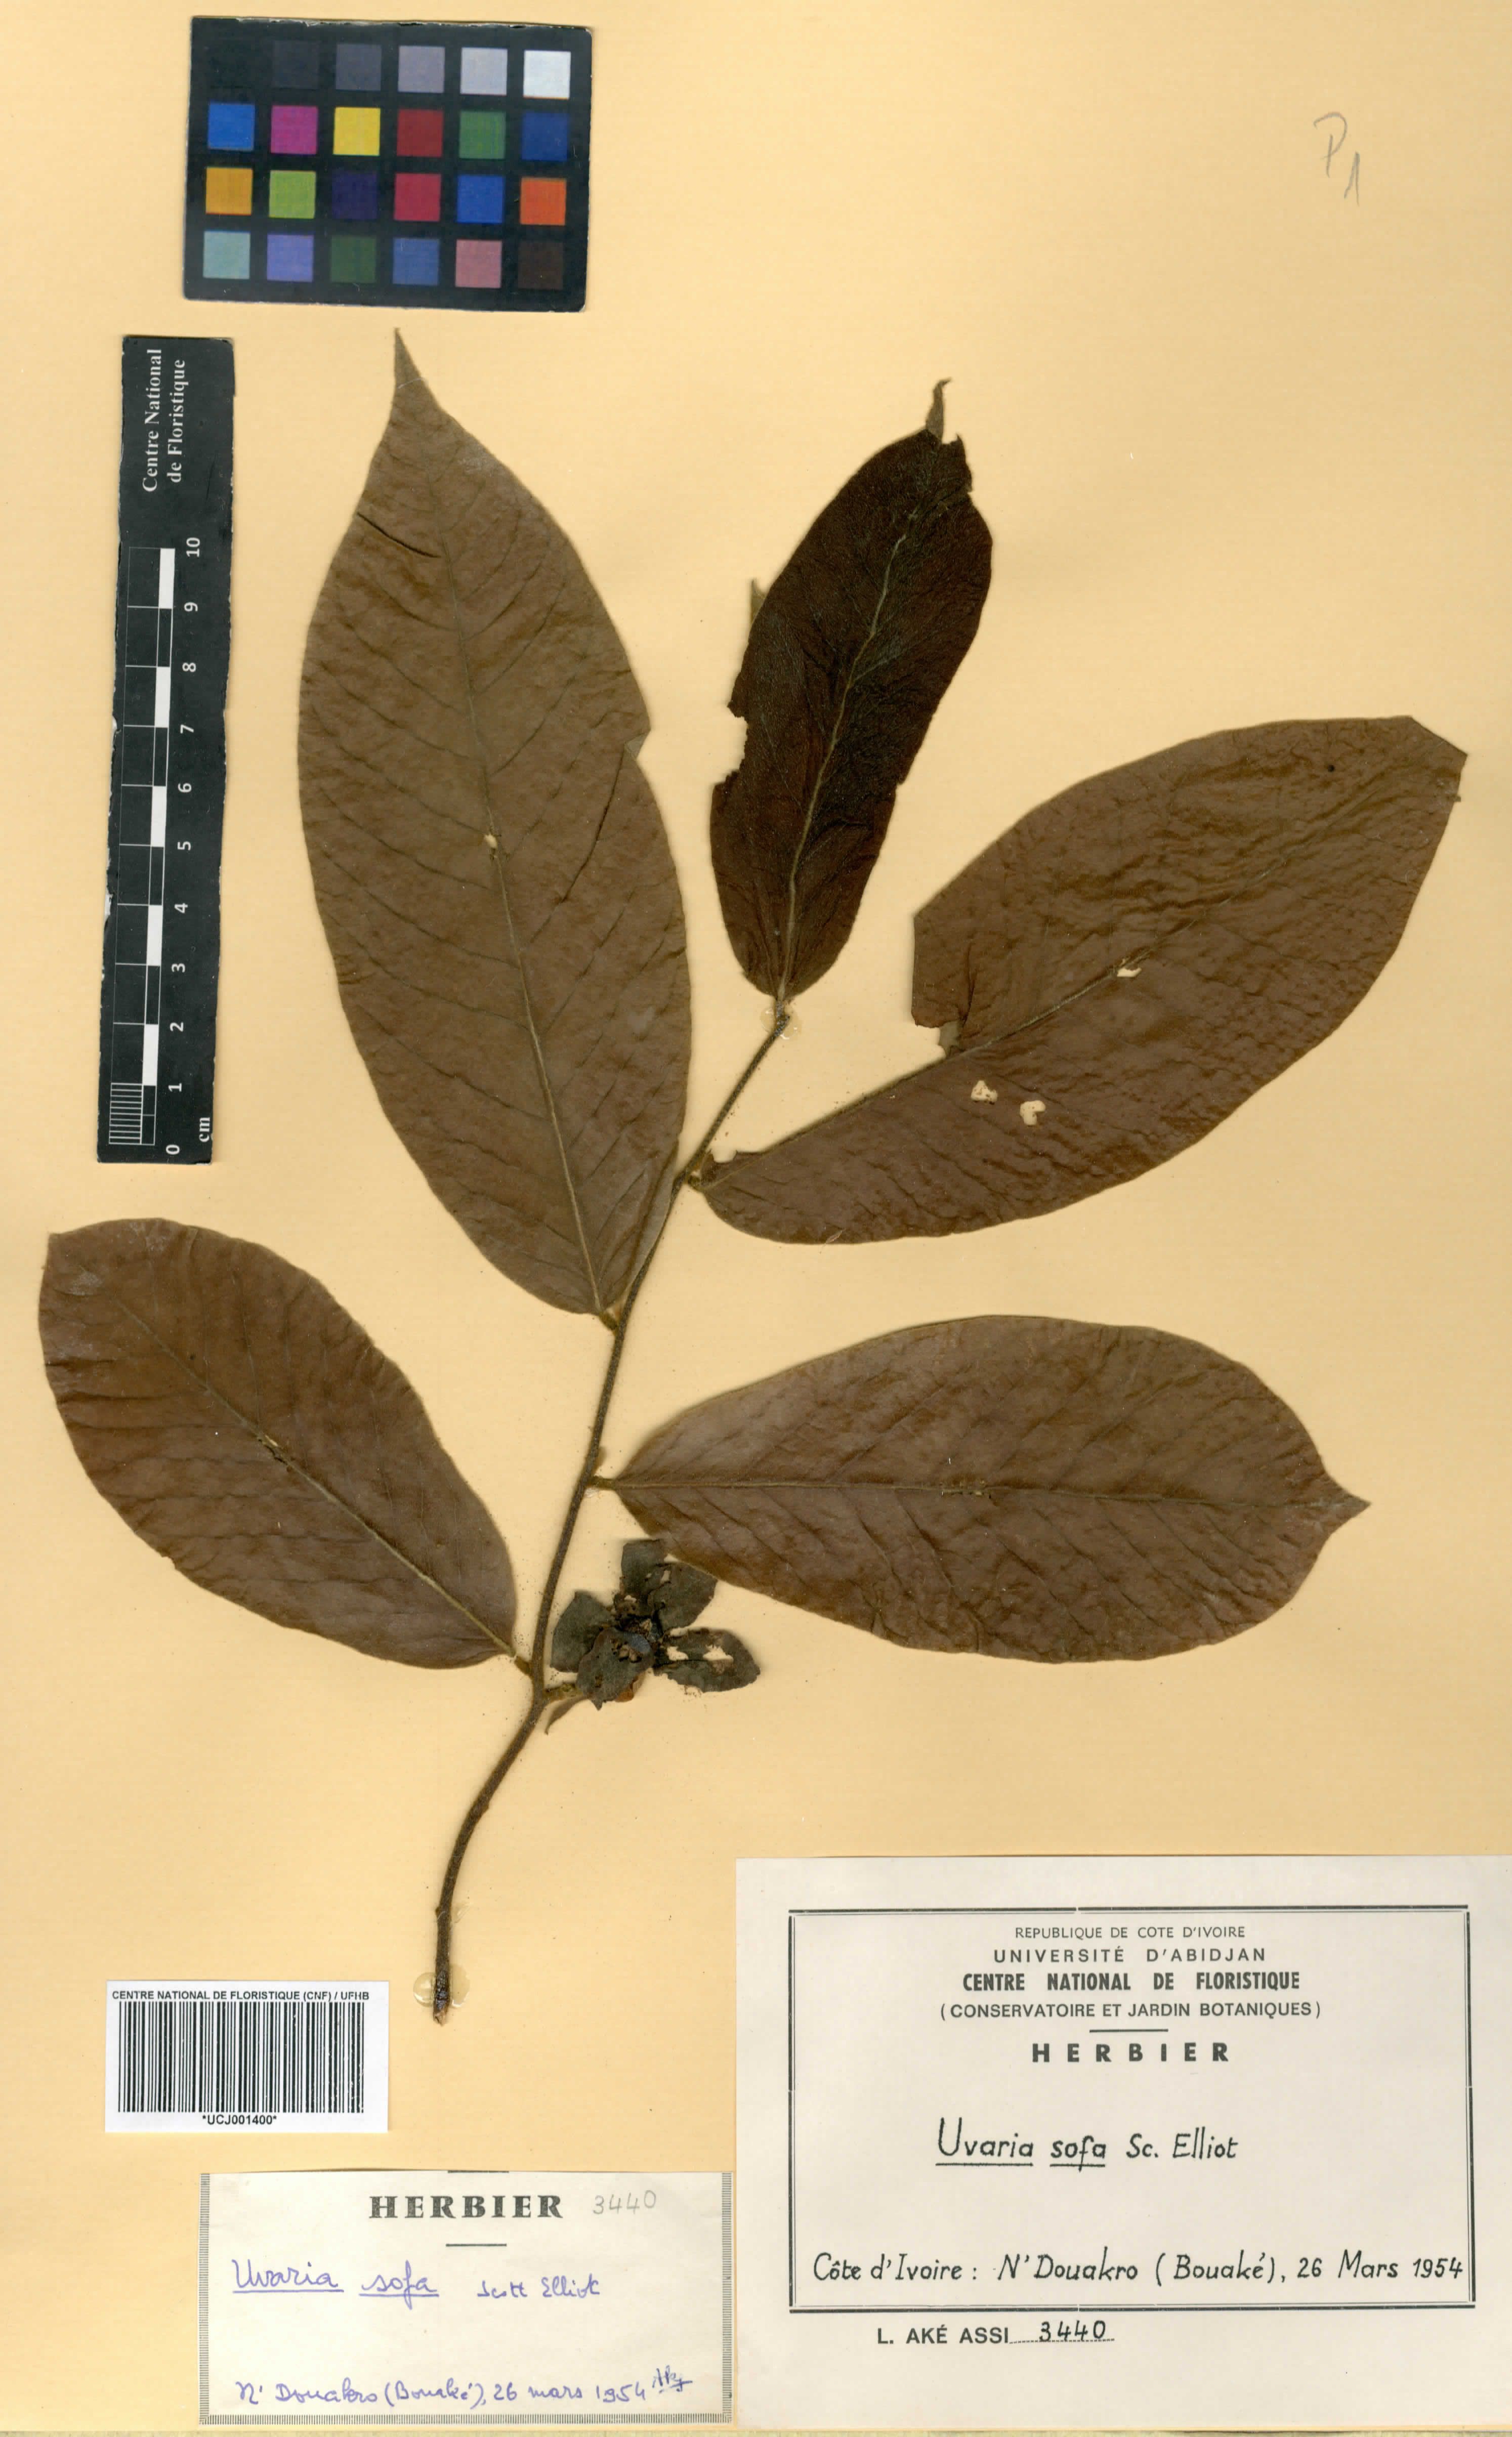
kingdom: Plantae
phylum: Tracheophyta
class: Magnoliopsida
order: Magnoliales
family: Annonaceae
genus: Uvaria
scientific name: Uvaria sofa
